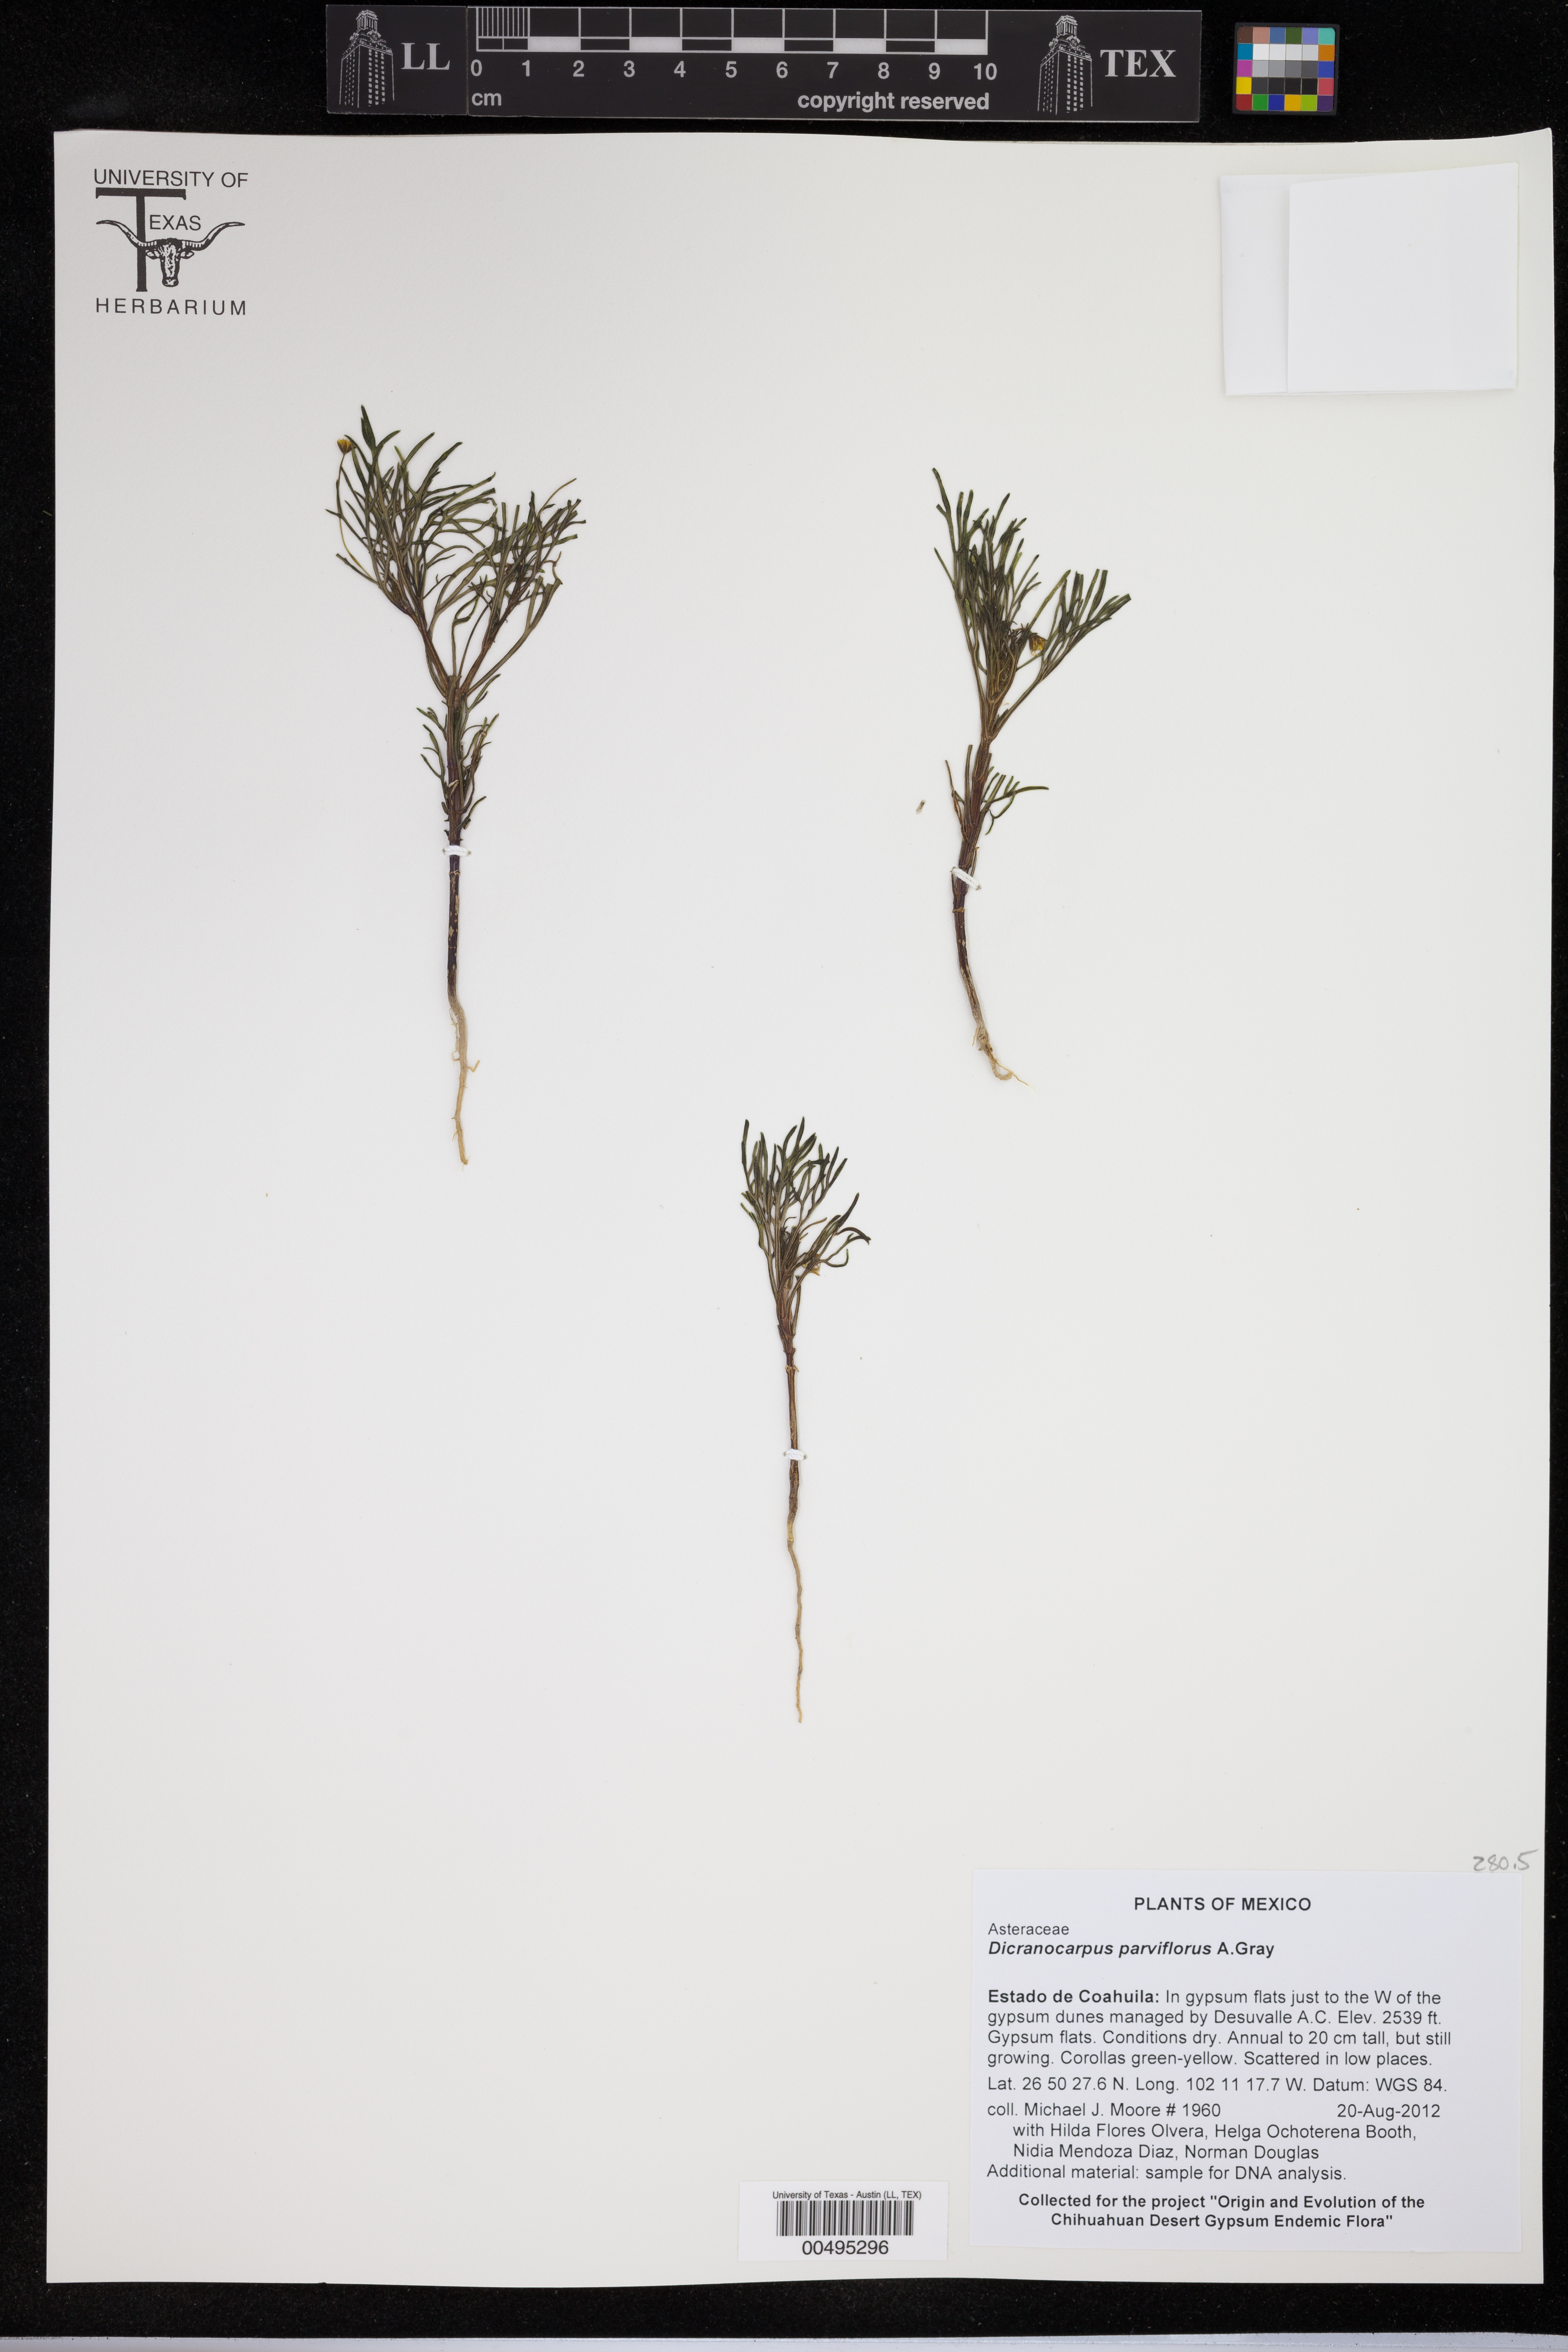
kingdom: Plantae
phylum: Tracheophyta
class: Magnoliopsida
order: Asterales
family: Asteraceae
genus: Dicranocarpus
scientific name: Dicranocarpus parviflorus
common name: Pitchfork
